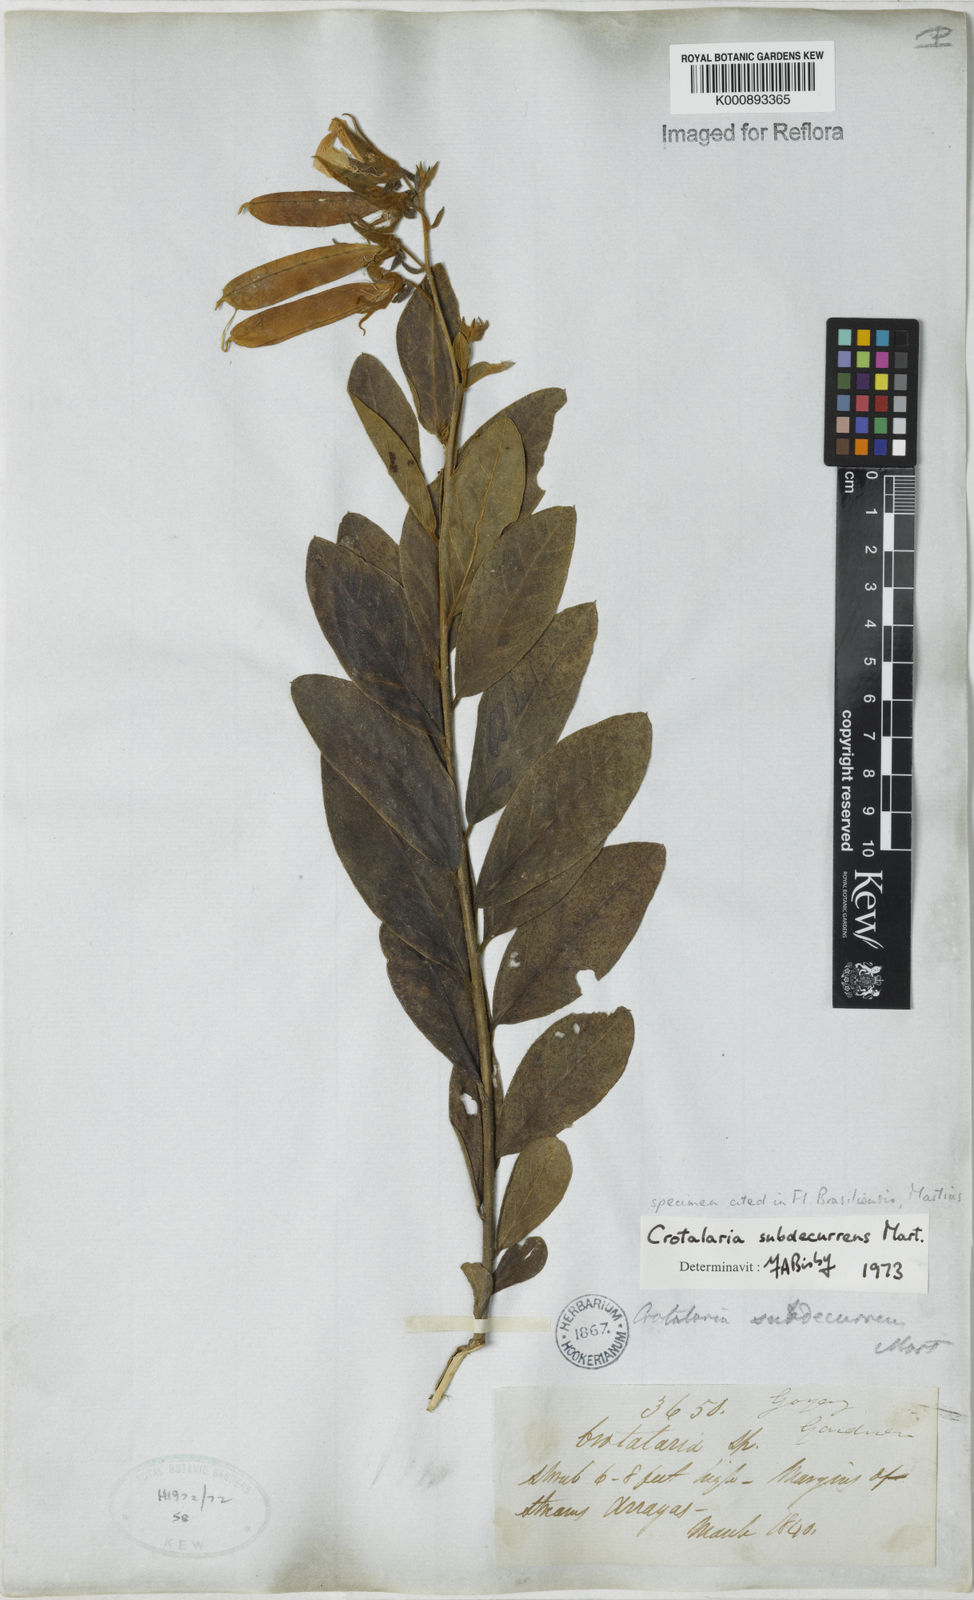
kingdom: Plantae
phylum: Tracheophyta
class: Magnoliopsida
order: Fabales
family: Fabaceae
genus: Crotalaria
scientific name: Crotalaria
